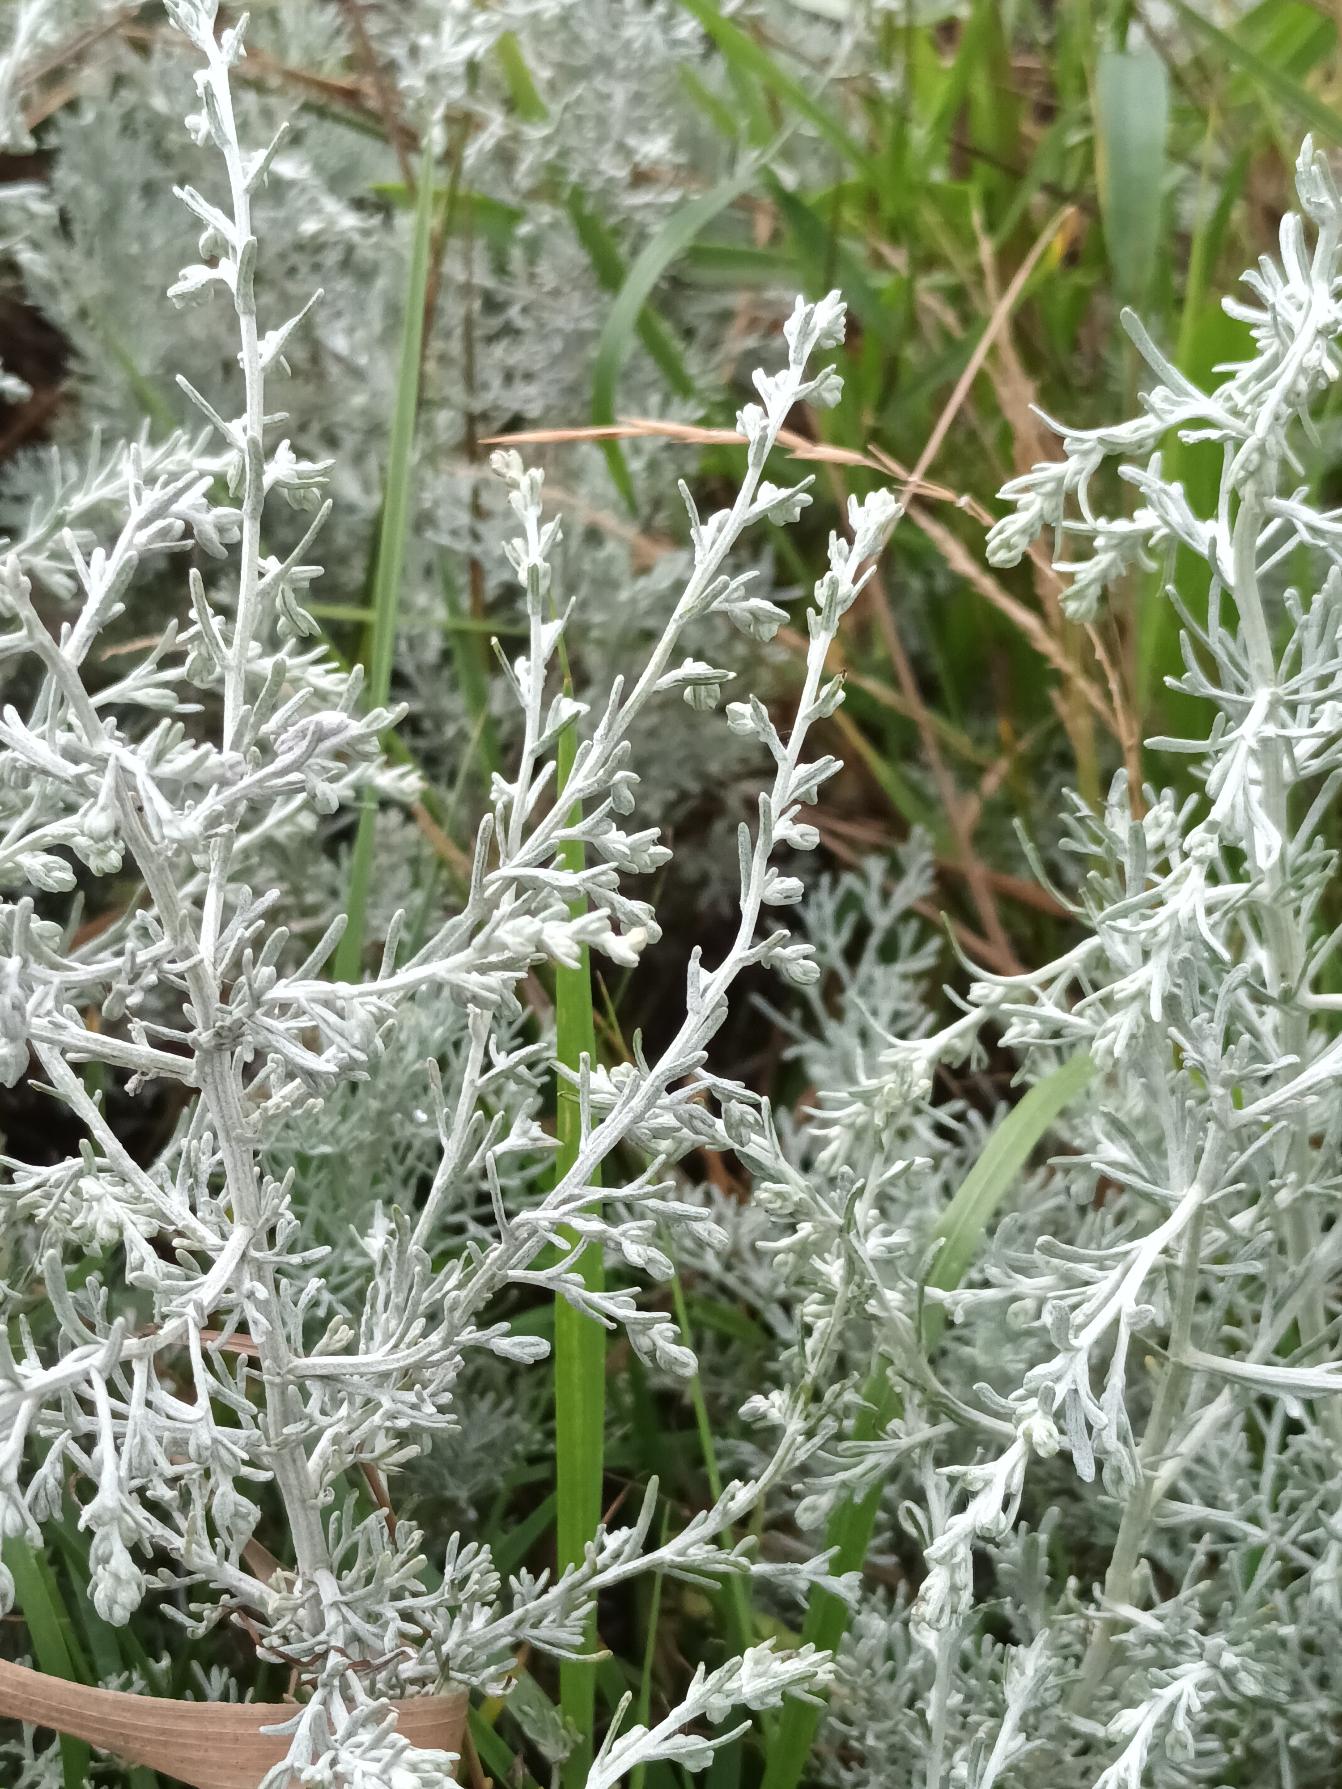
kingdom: Plantae
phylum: Tracheophyta
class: Magnoliopsida
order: Asterales
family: Asteraceae
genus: Artemisia
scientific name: Artemisia maritima
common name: Strandmalurt
